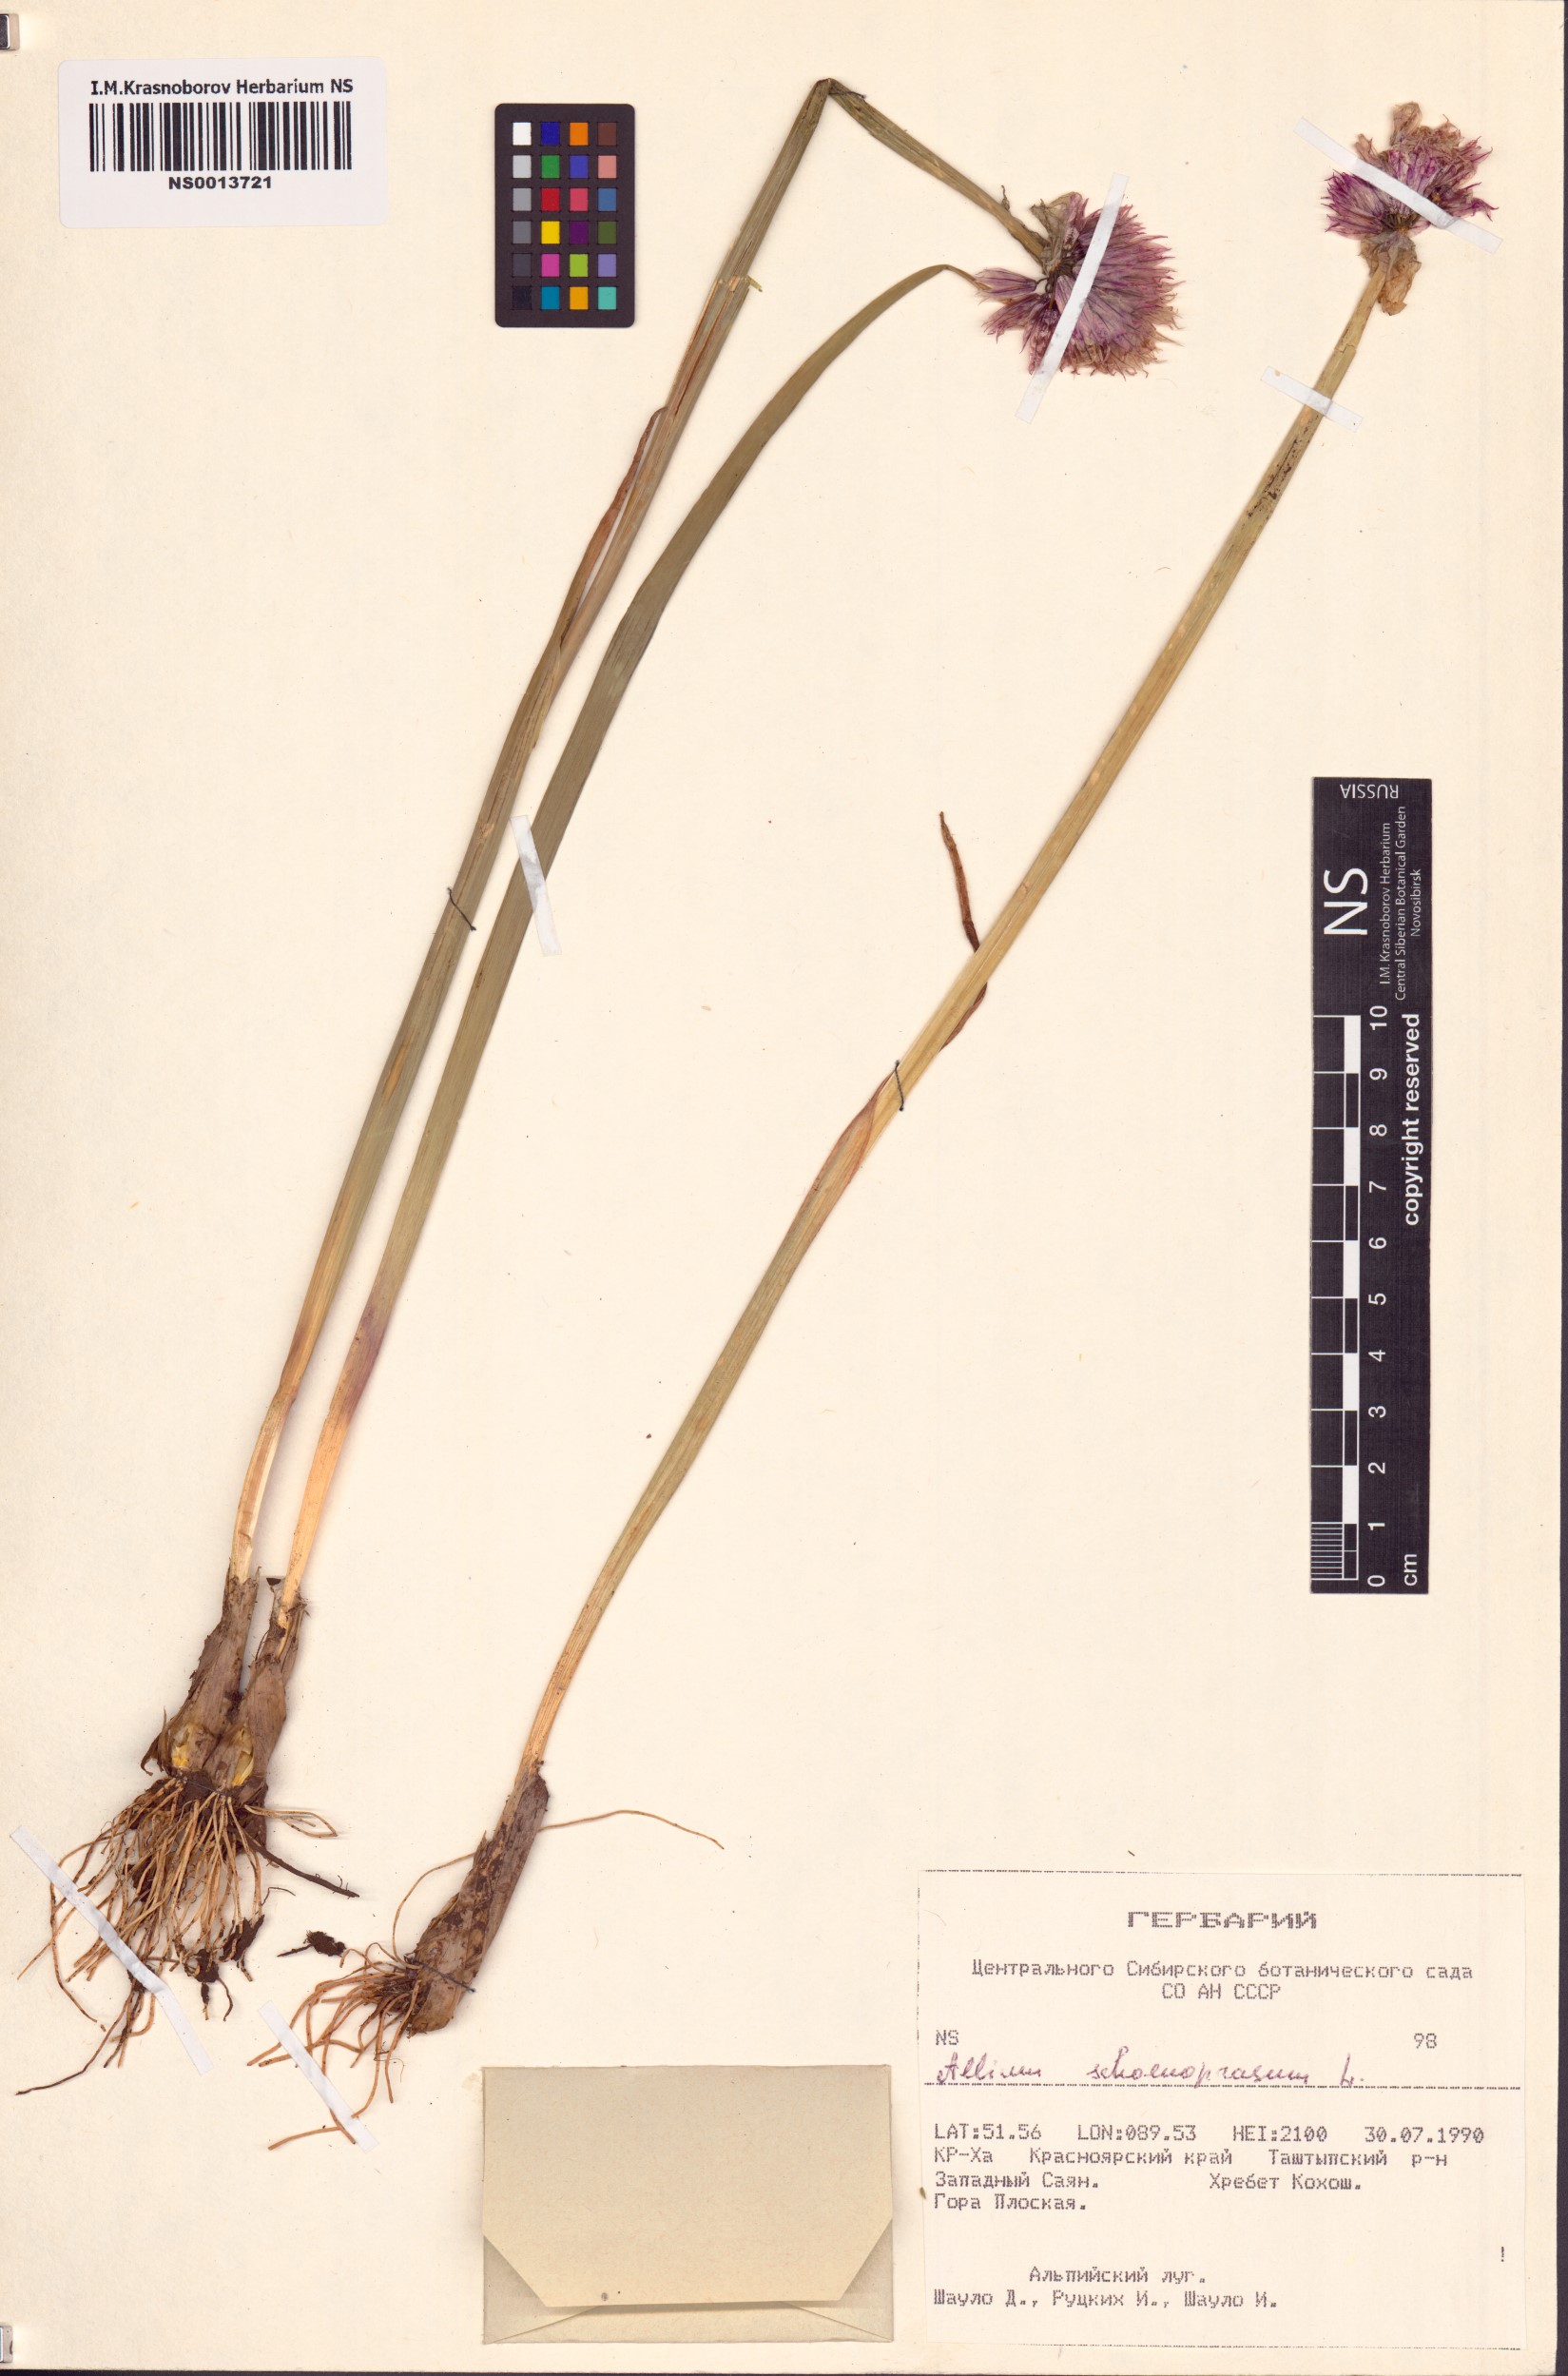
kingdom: Plantae
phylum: Tracheophyta
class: Liliopsida
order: Asparagales
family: Amaryllidaceae
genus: Allium
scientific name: Allium schoenoprasum
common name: Chives
